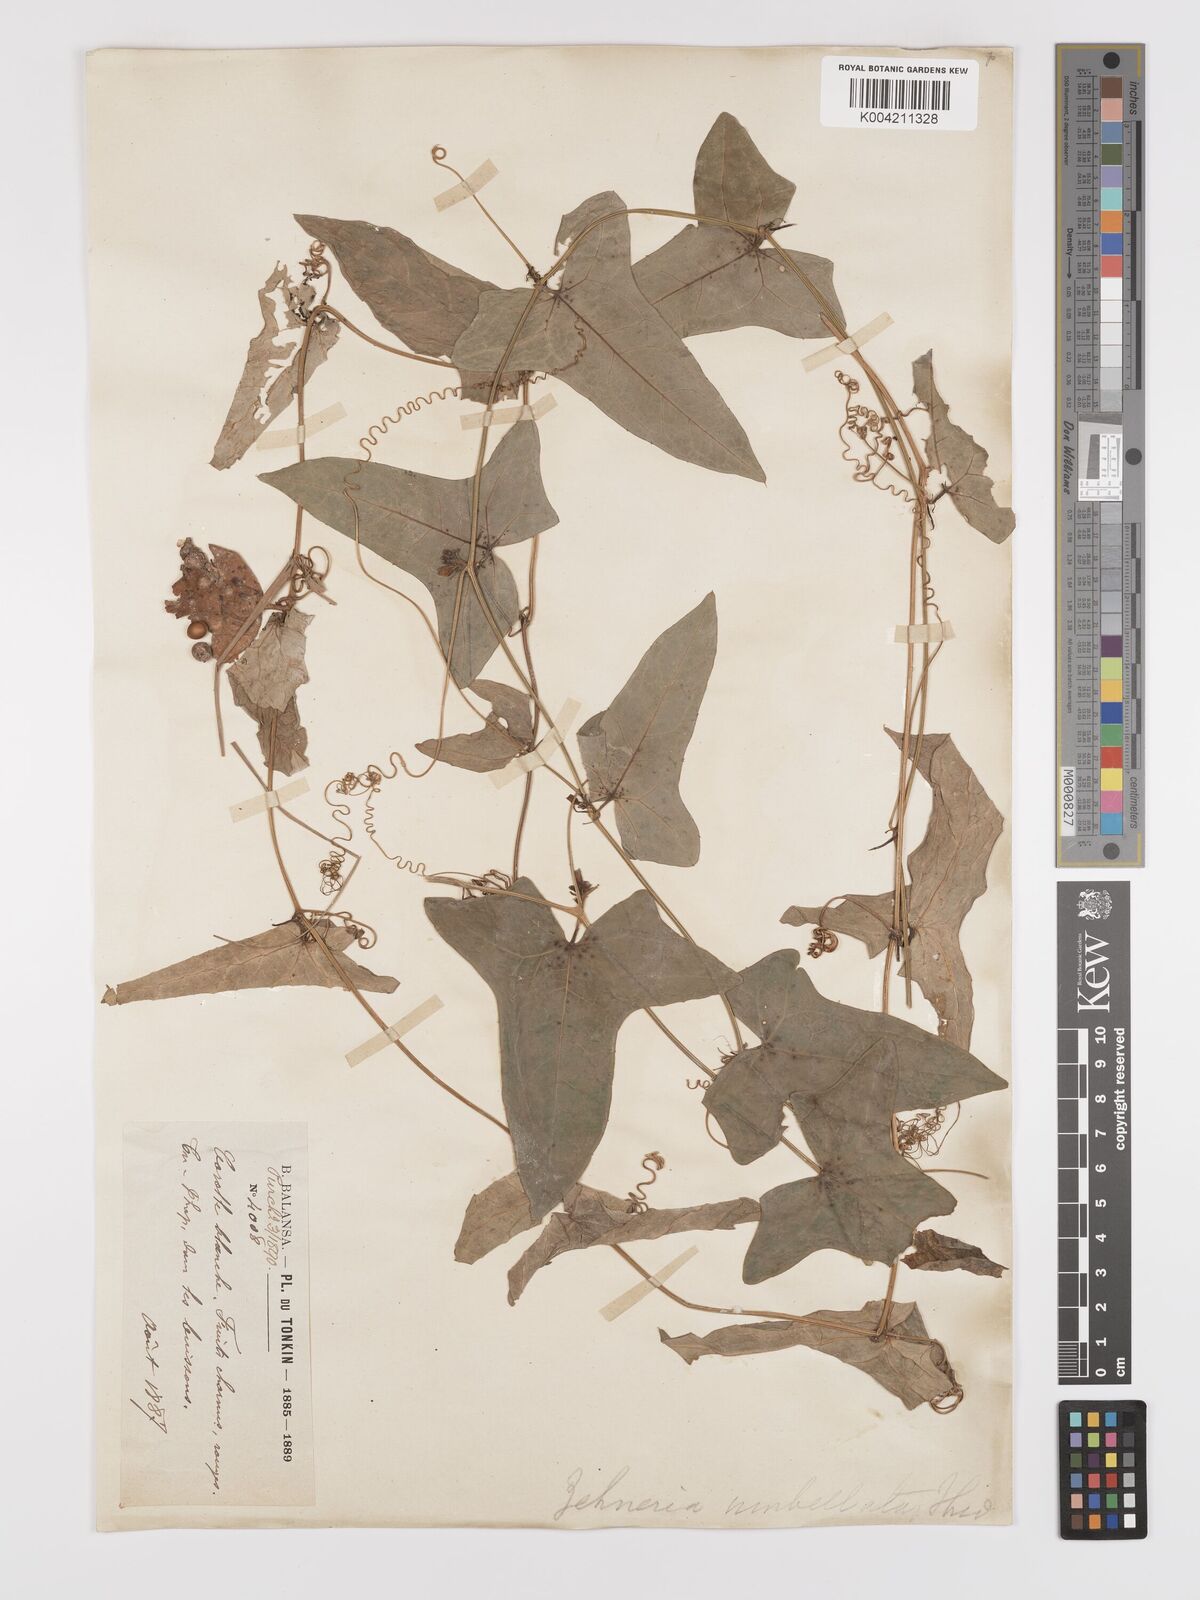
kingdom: Plantae
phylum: Tracheophyta
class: Magnoliopsida
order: Cucurbitales
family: Cucurbitaceae
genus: Solena
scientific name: Solena amplexicaulis
